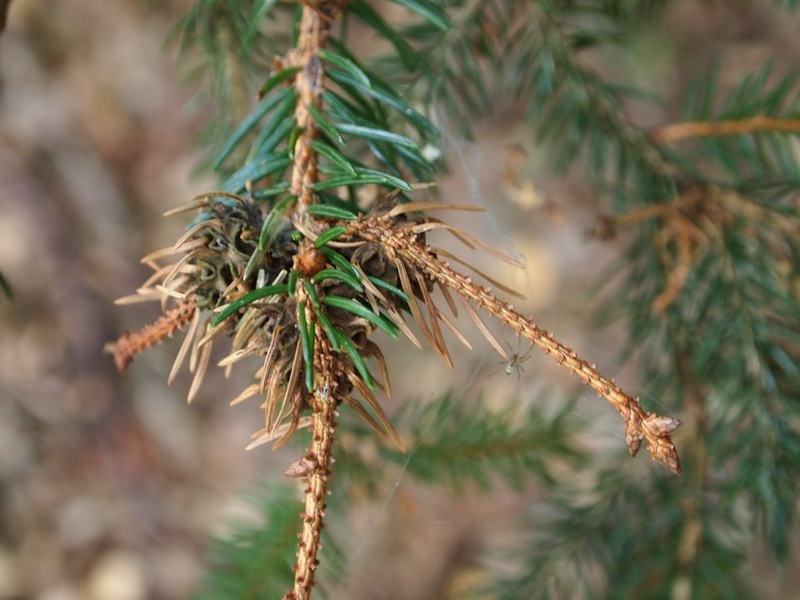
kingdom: Animalia
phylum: Arthropoda
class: Insecta
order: Hemiptera
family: Adelgidae
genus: Adelges
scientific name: Adelges abietis
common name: Eastern spruce gall adelgid
